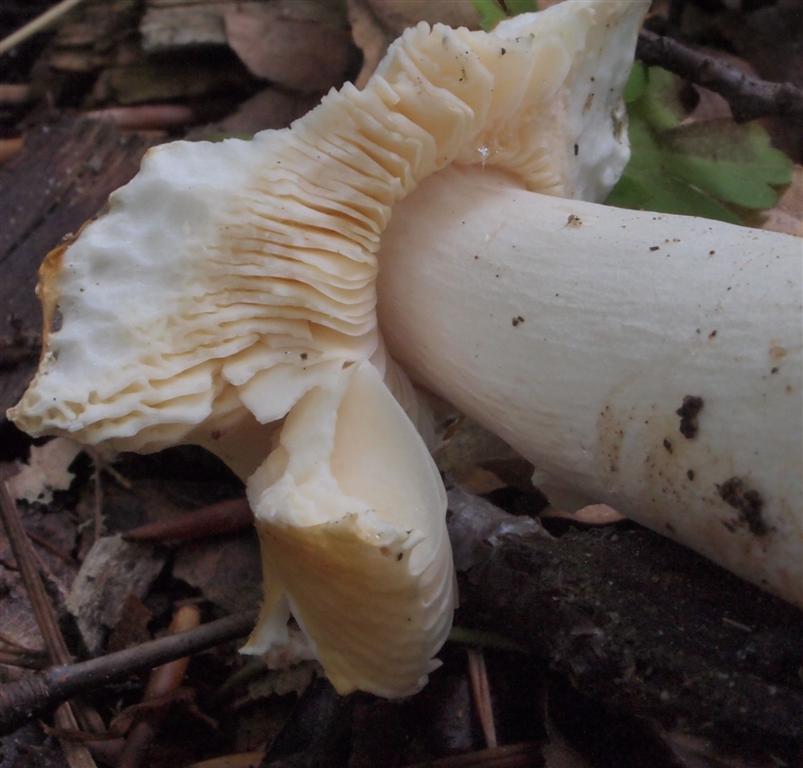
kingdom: Fungi
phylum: Basidiomycota
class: Agaricomycetes
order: Russulales
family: Russulaceae
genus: Russula
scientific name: Russula risigallina
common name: abrikos-skørhat
